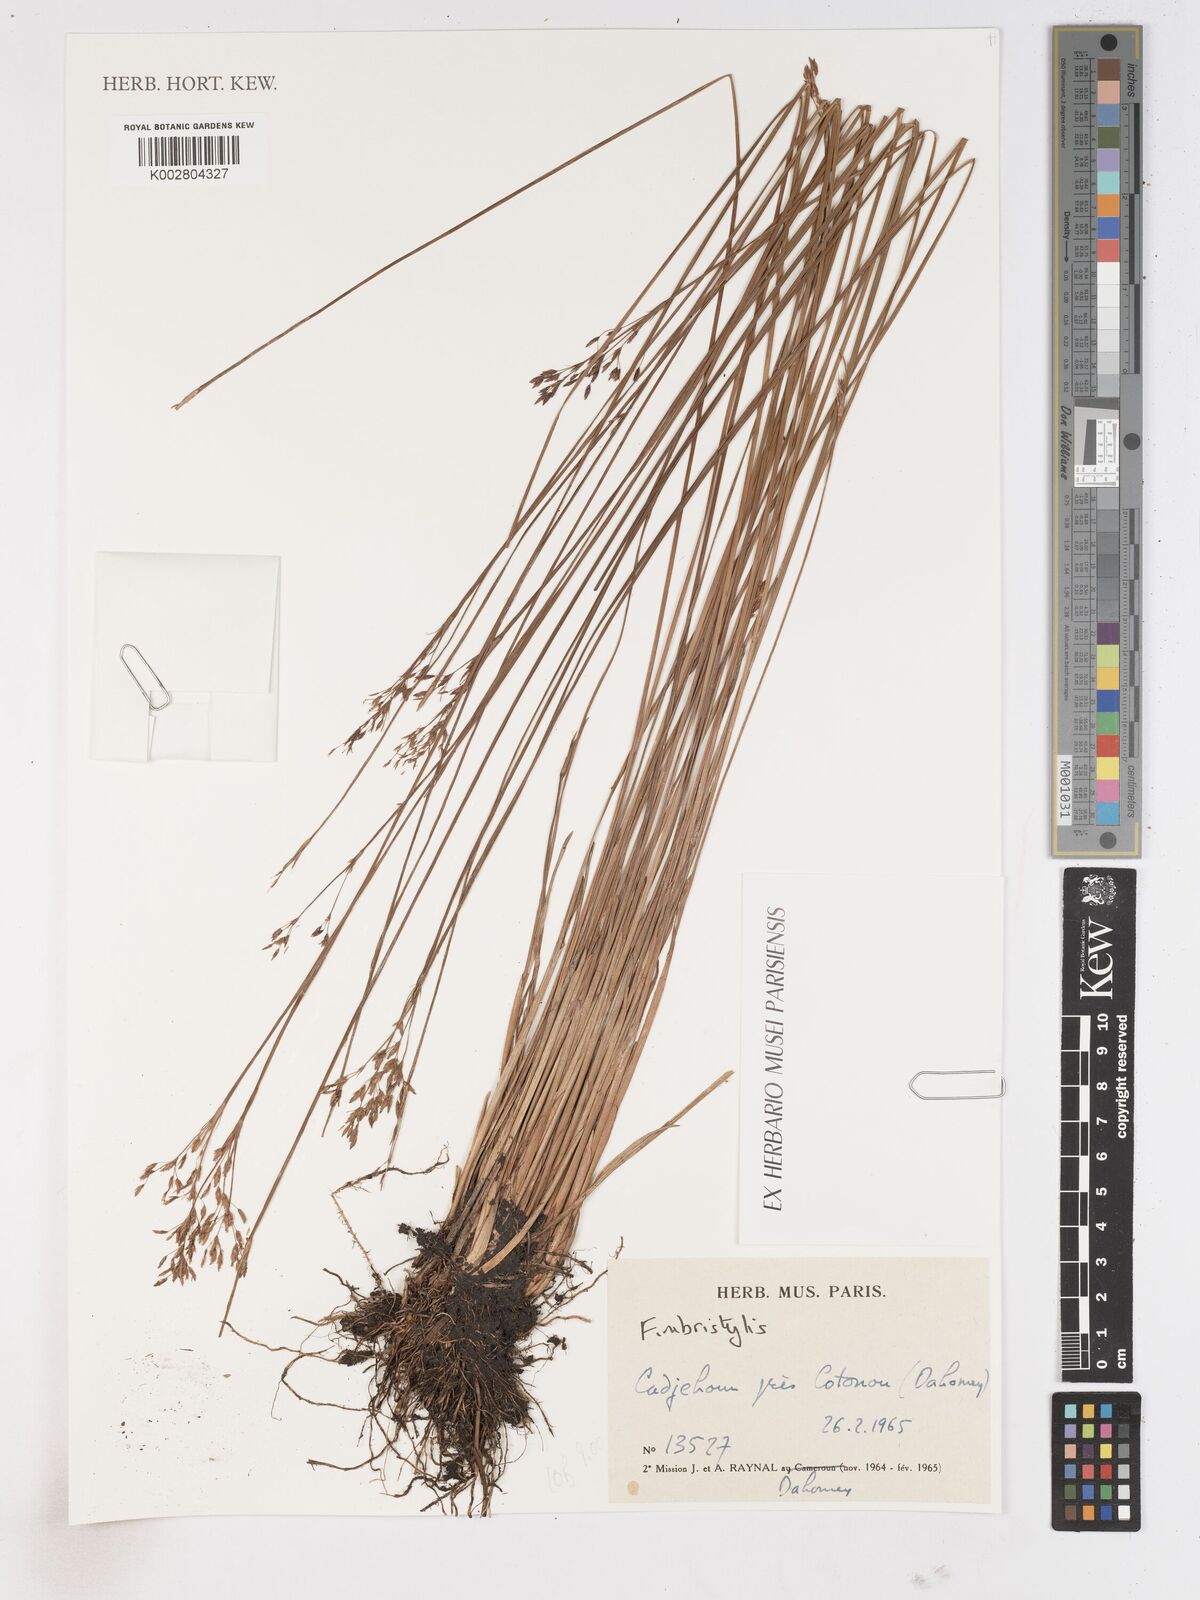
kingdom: Plantae
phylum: Tracheophyta
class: Liliopsida
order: Poales
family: Cyperaceae
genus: Fimbristylis
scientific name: Fimbristylis
